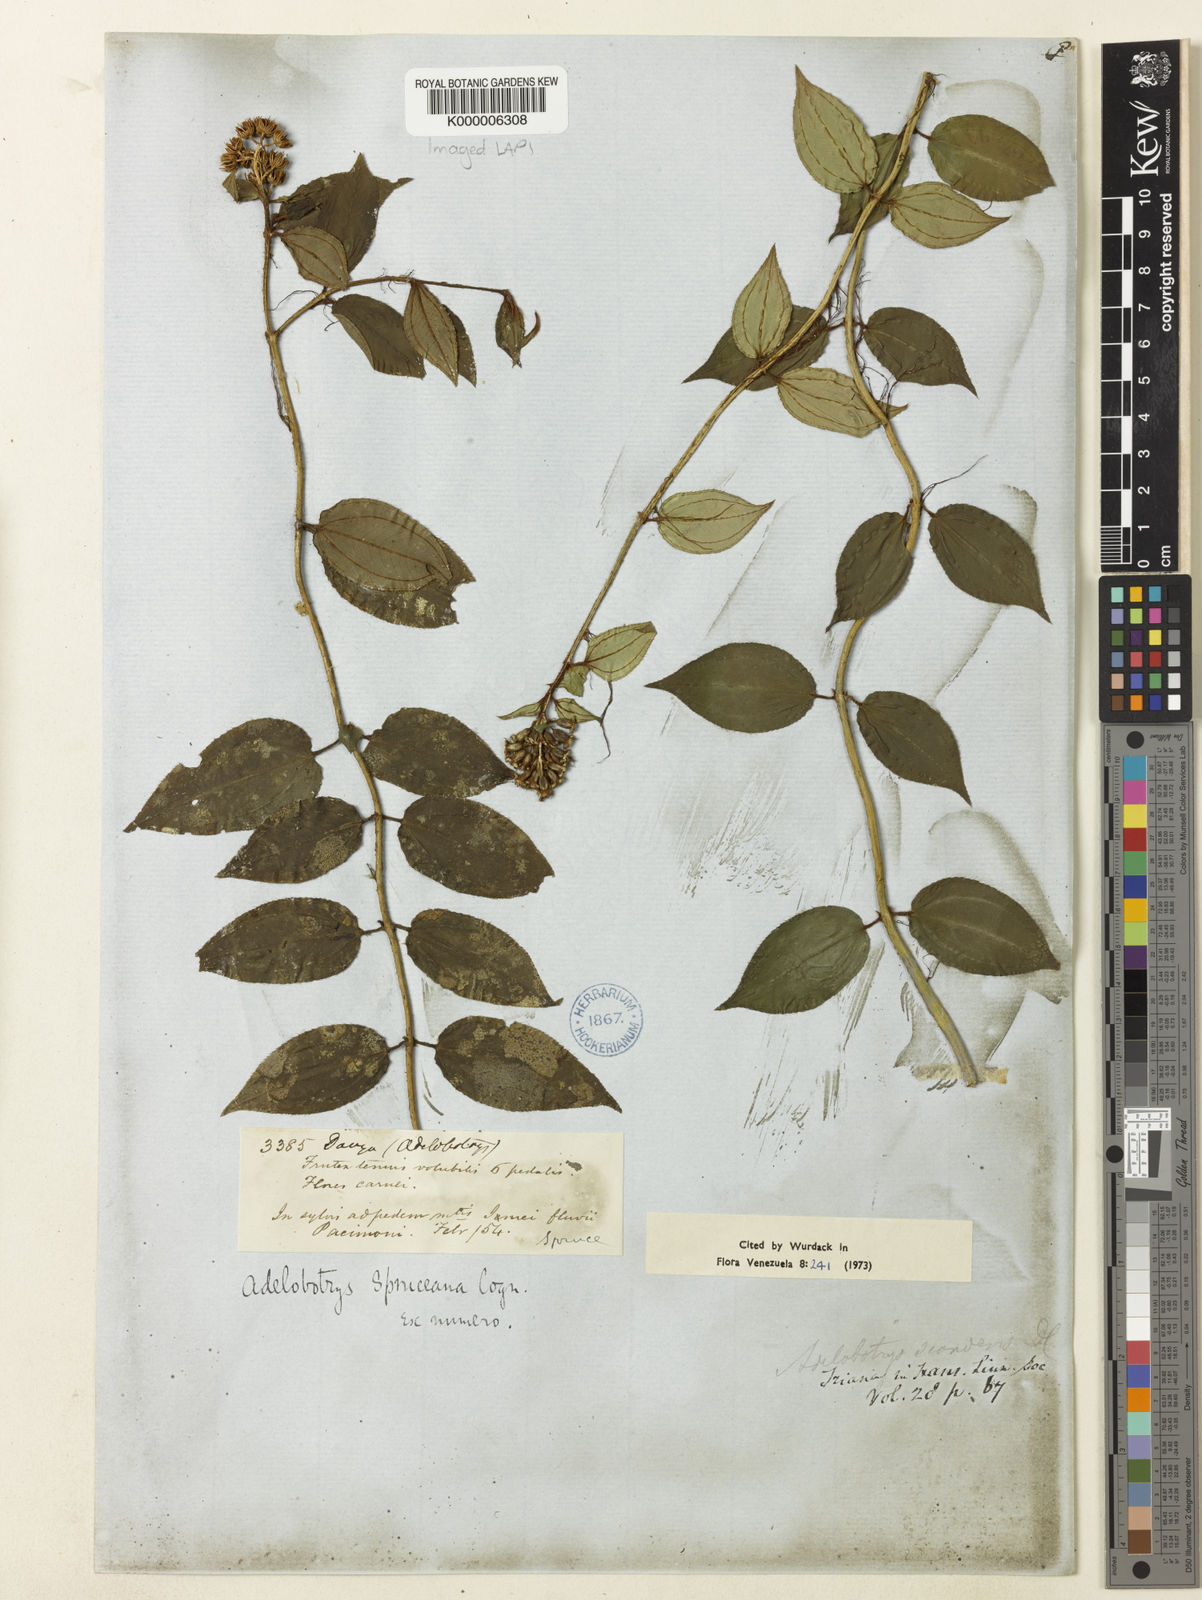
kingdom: Plantae
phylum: Tracheophyta
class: Magnoliopsida
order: Myrtales
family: Melastomataceae
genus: Adelobotrys
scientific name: Adelobotrys
